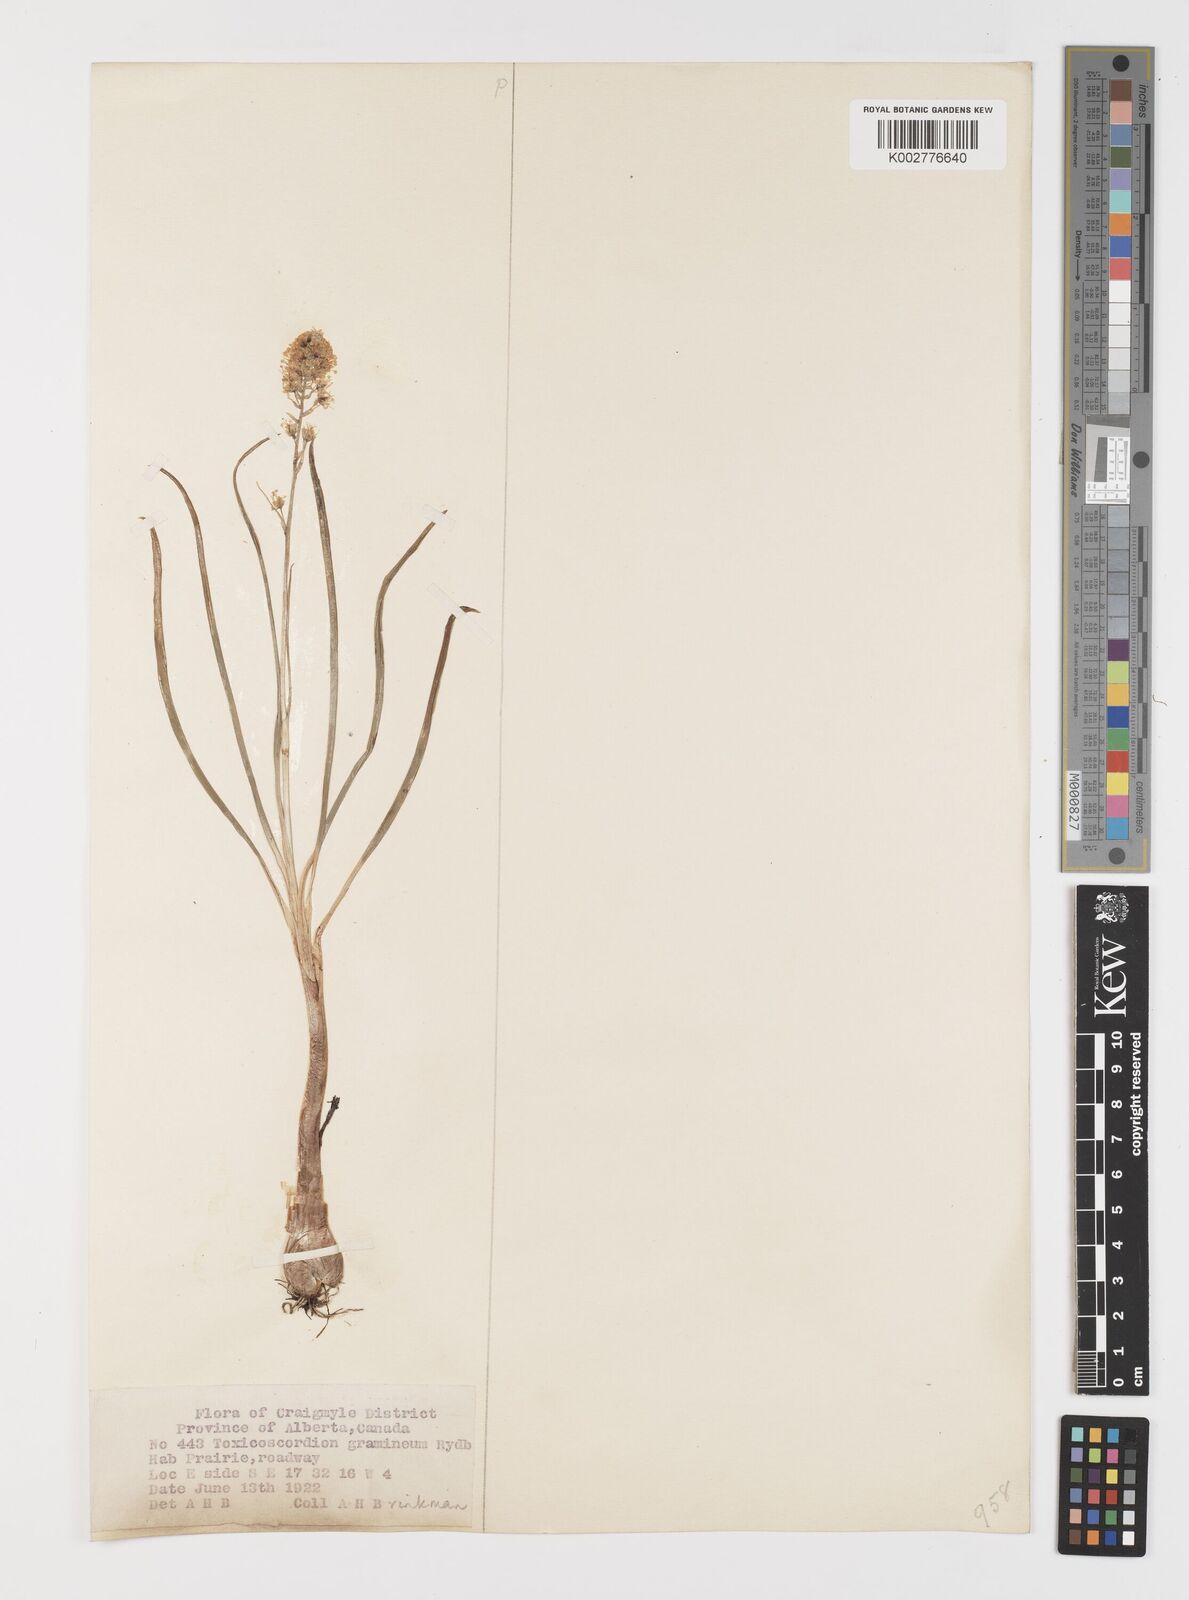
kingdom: Plantae
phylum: Tracheophyta
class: Liliopsida
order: Liliales
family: Melanthiaceae
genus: Toxicoscordion
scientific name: Toxicoscordion venenosum
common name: Meadow death camas
